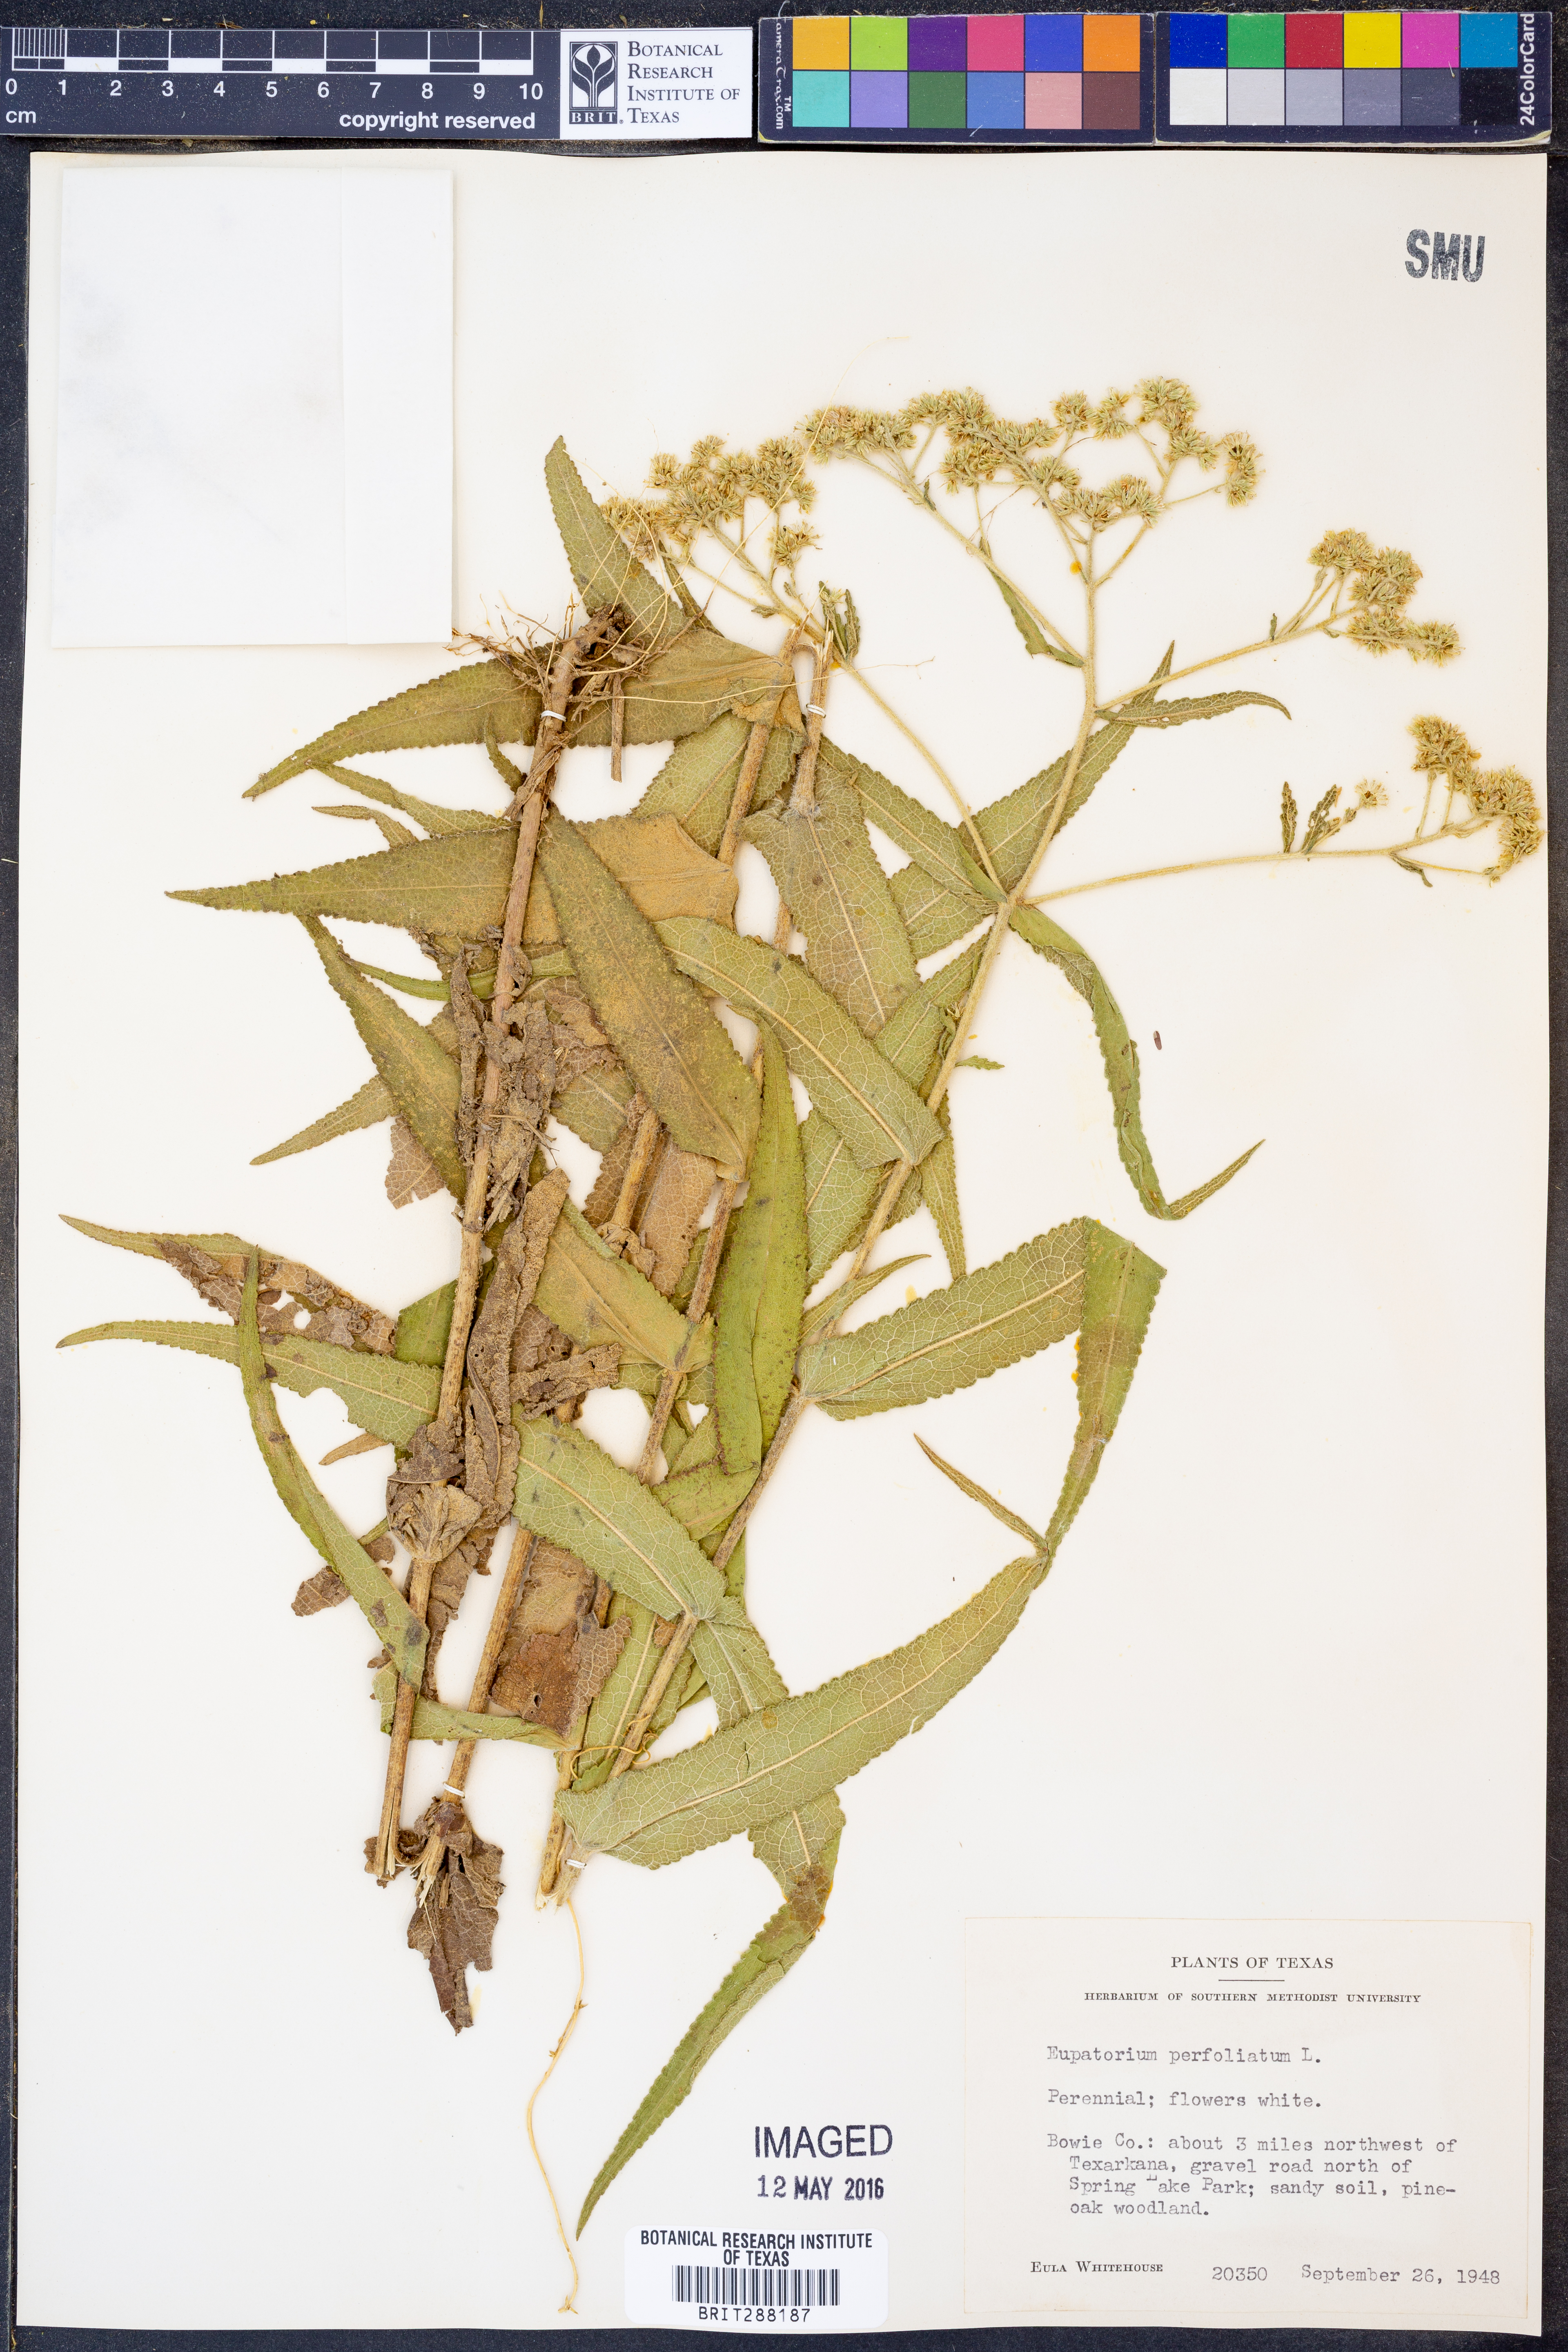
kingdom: Plantae
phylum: Tracheophyta
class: Magnoliopsida
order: Asterales
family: Asteraceae
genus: Eupatorium
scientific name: Eupatorium perfoliatum
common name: Boneset
